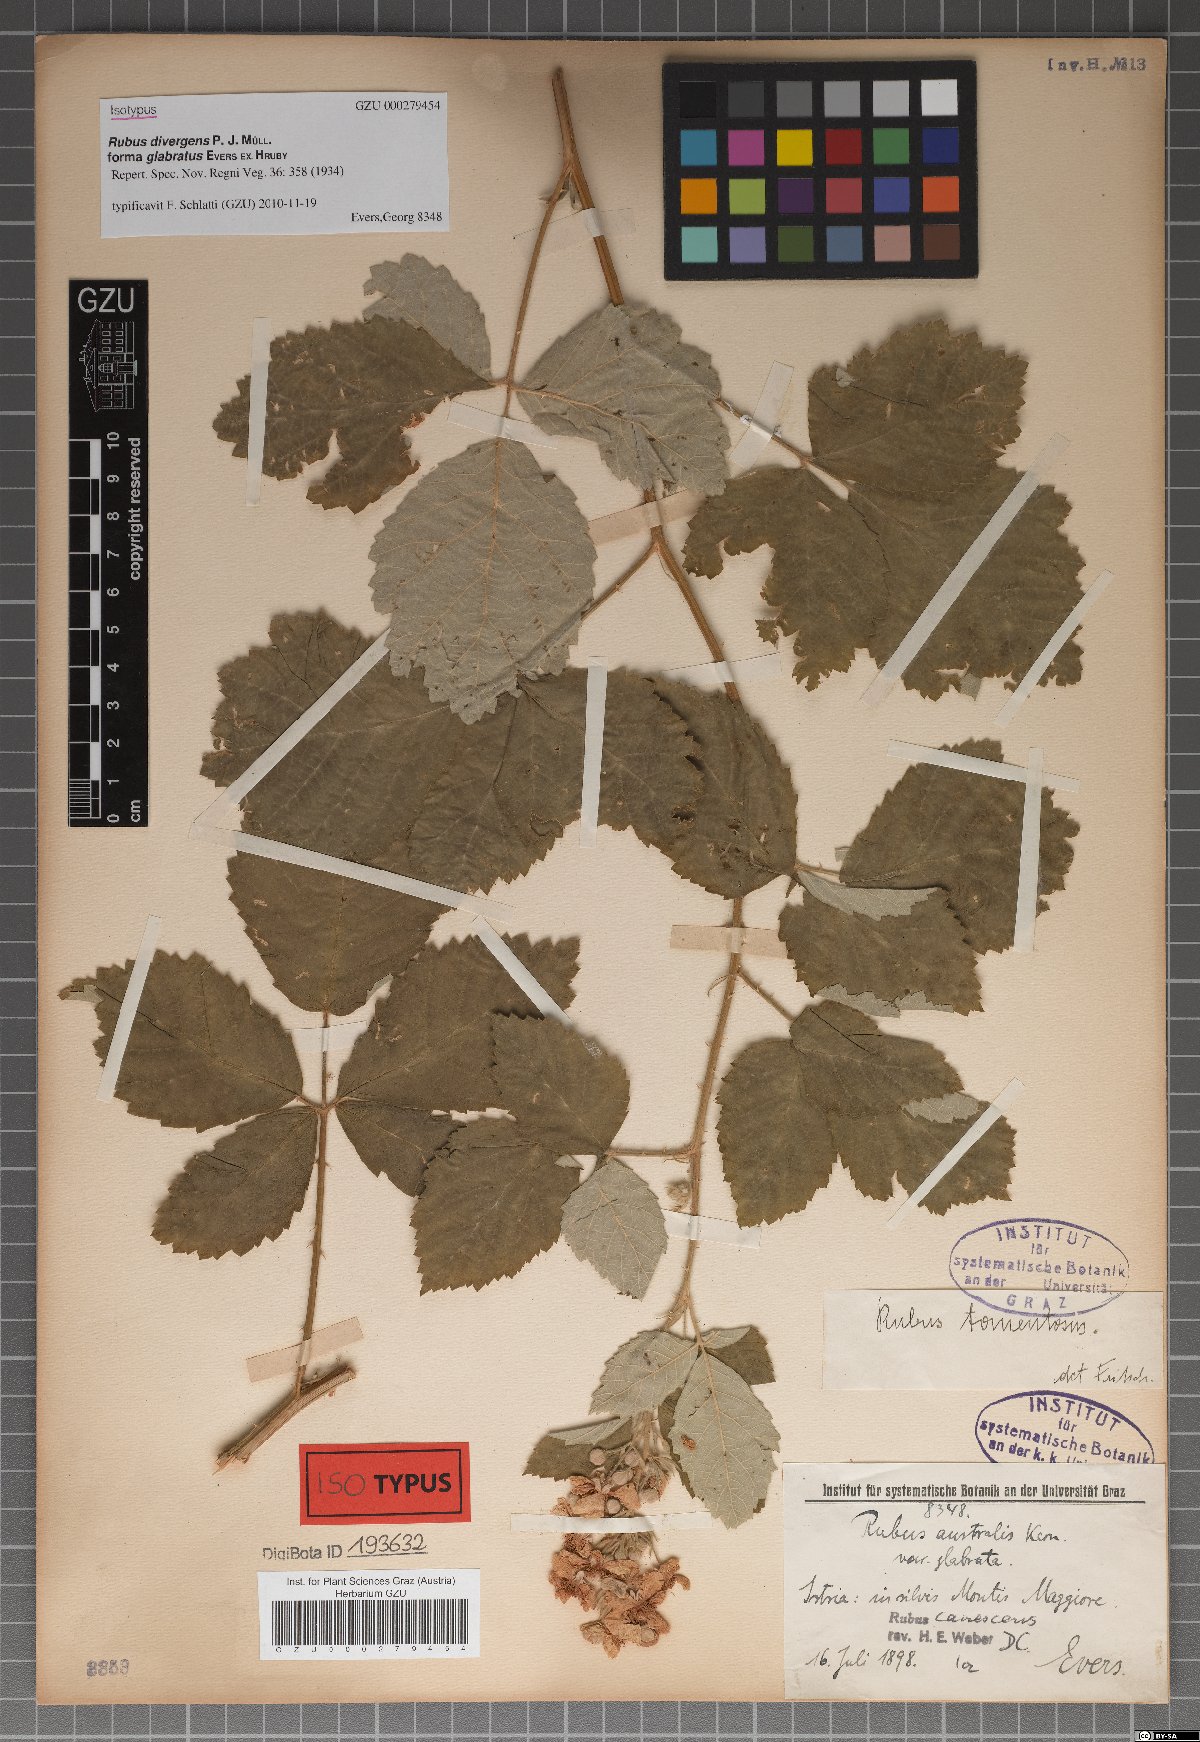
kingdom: Plantae
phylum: Tracheophyta
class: Magnoliopsida
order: Rosales
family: Rosaceae
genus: Rubus
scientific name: Rubus divergens
